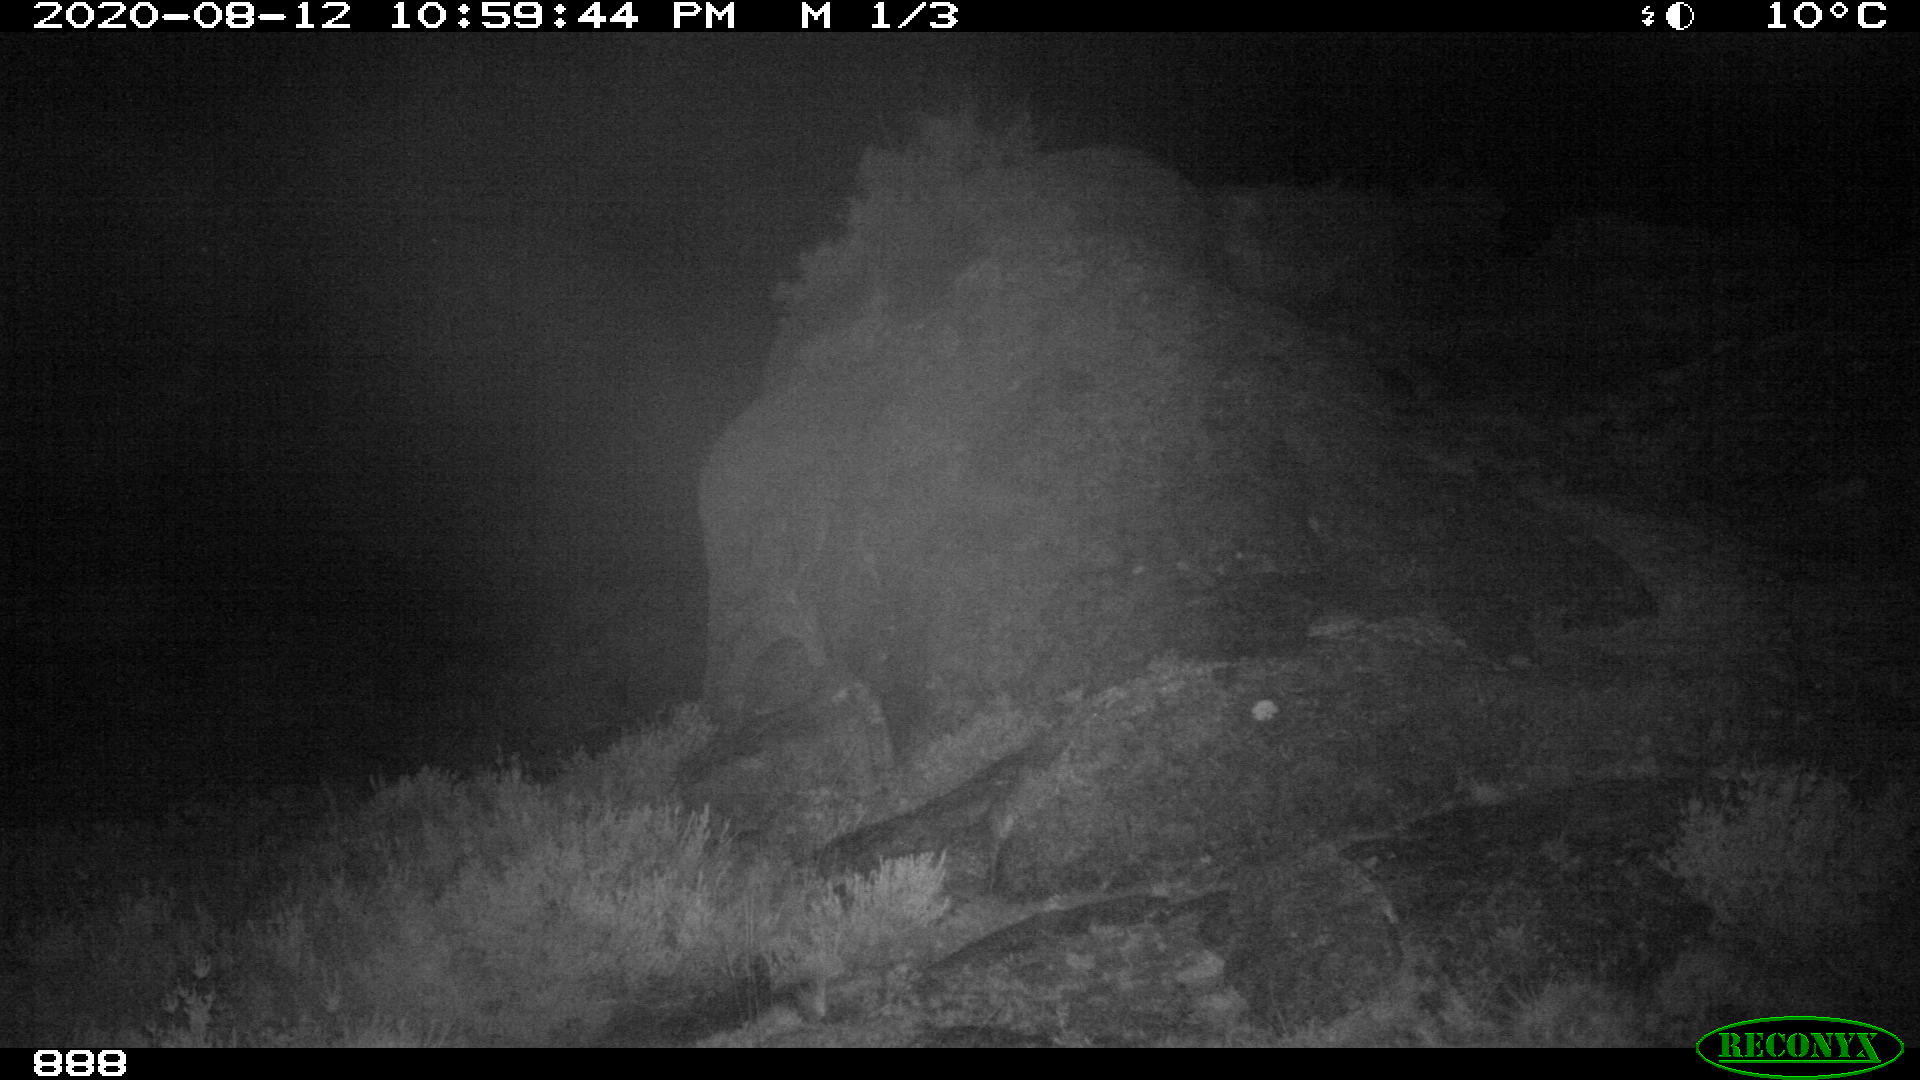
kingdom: Animalia
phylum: Chordata
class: Mammalia
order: Perissodactyla
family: Equidae
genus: Equus
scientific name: Equus caballus
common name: Horse
